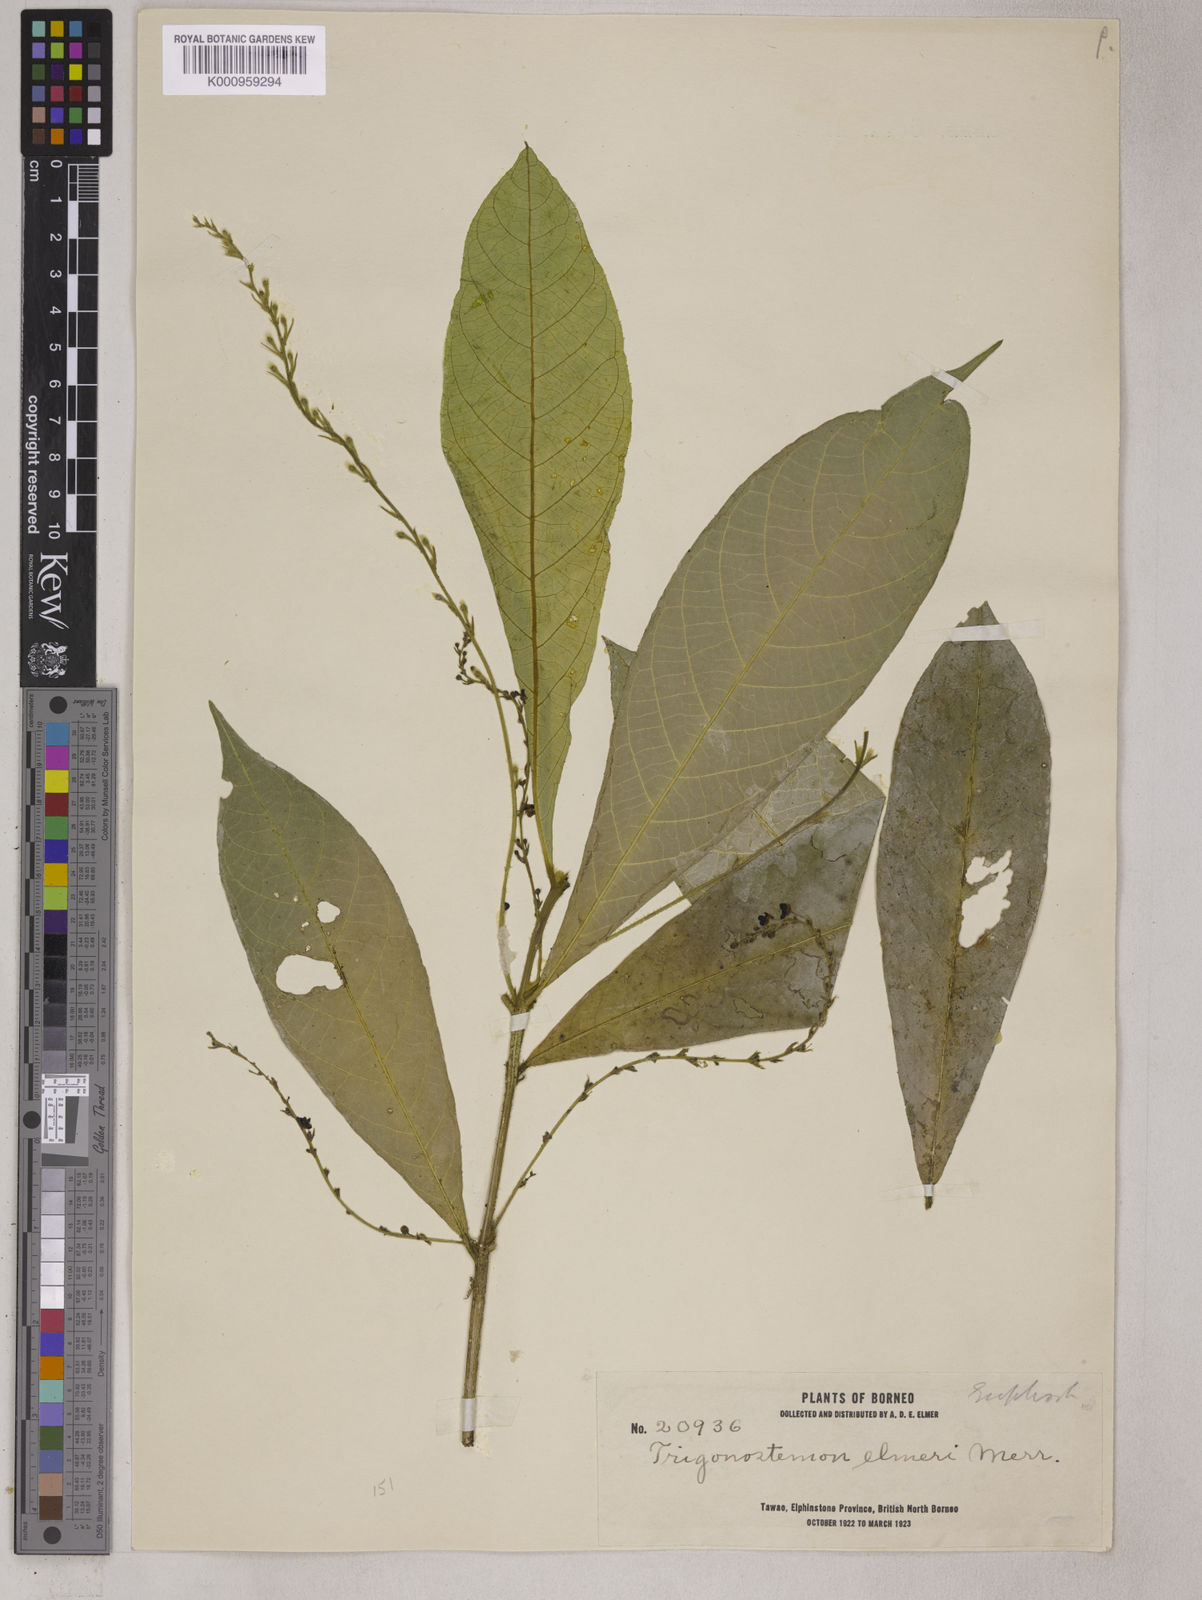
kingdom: Plantae
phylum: Tracheophyta
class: Magnoliopsida
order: Malpighiales
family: Euphorbiaceae
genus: Trigonostemon
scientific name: Trigonostemon longifolius
